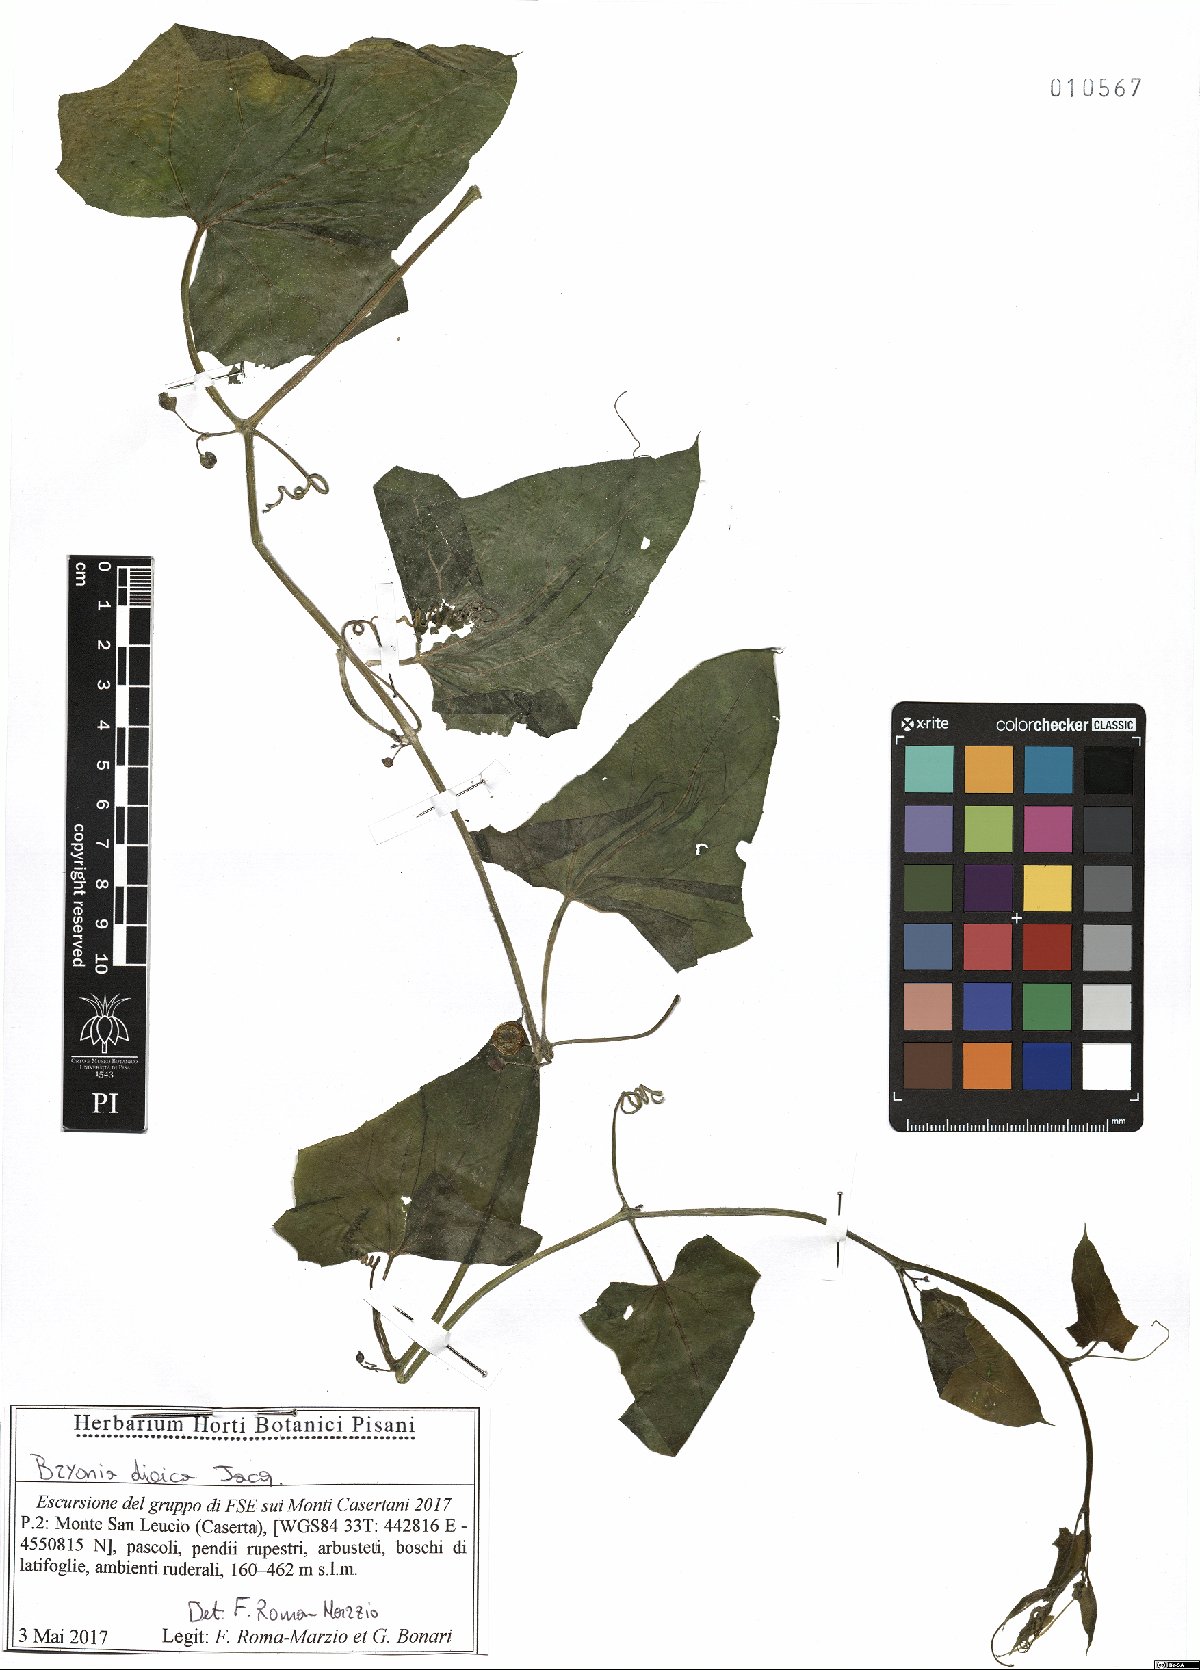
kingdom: Plantae
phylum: Tracheophyta
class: Magnoliopsida
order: Cucurbitales
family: Cucurbitaceae
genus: Bryonia
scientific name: Bryonia dioica
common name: White bryony
